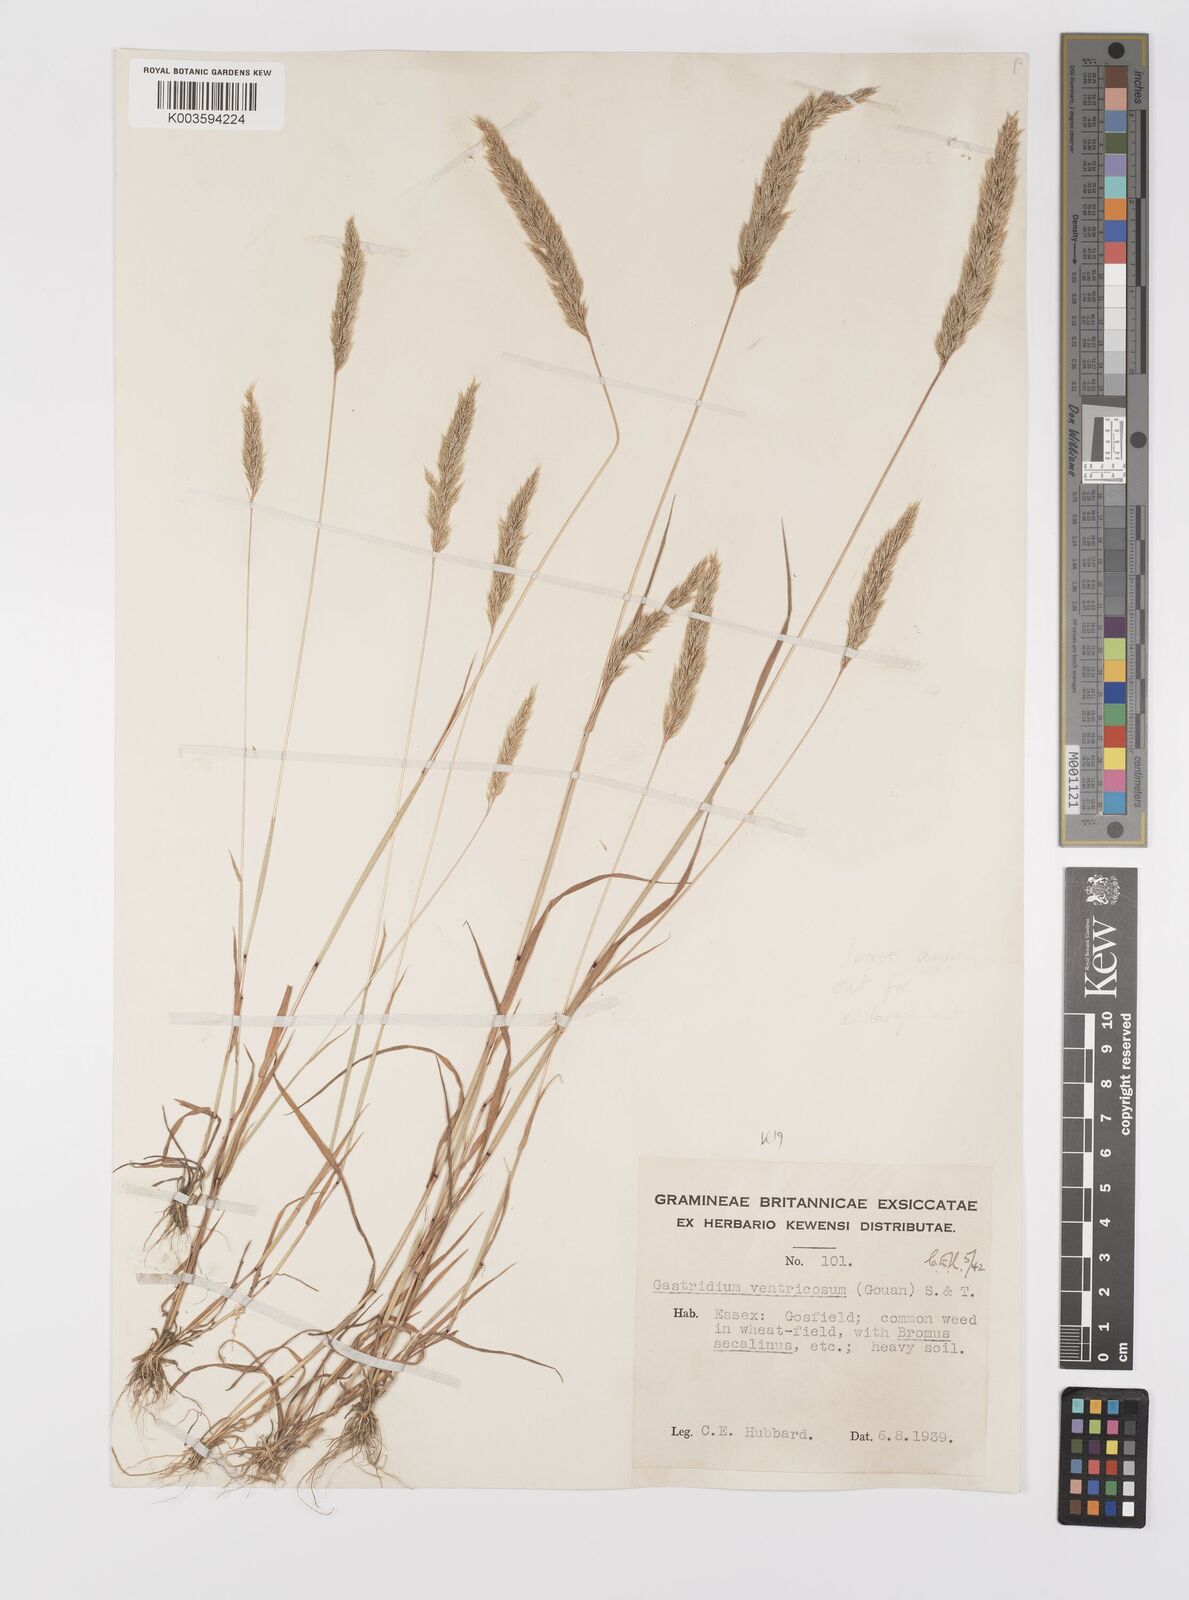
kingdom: Plantae
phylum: Tracheophyta
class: Liliopsida
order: Poales
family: Poaceae
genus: Gastridium
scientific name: Gastridium ventricosum
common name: Nit-grass
